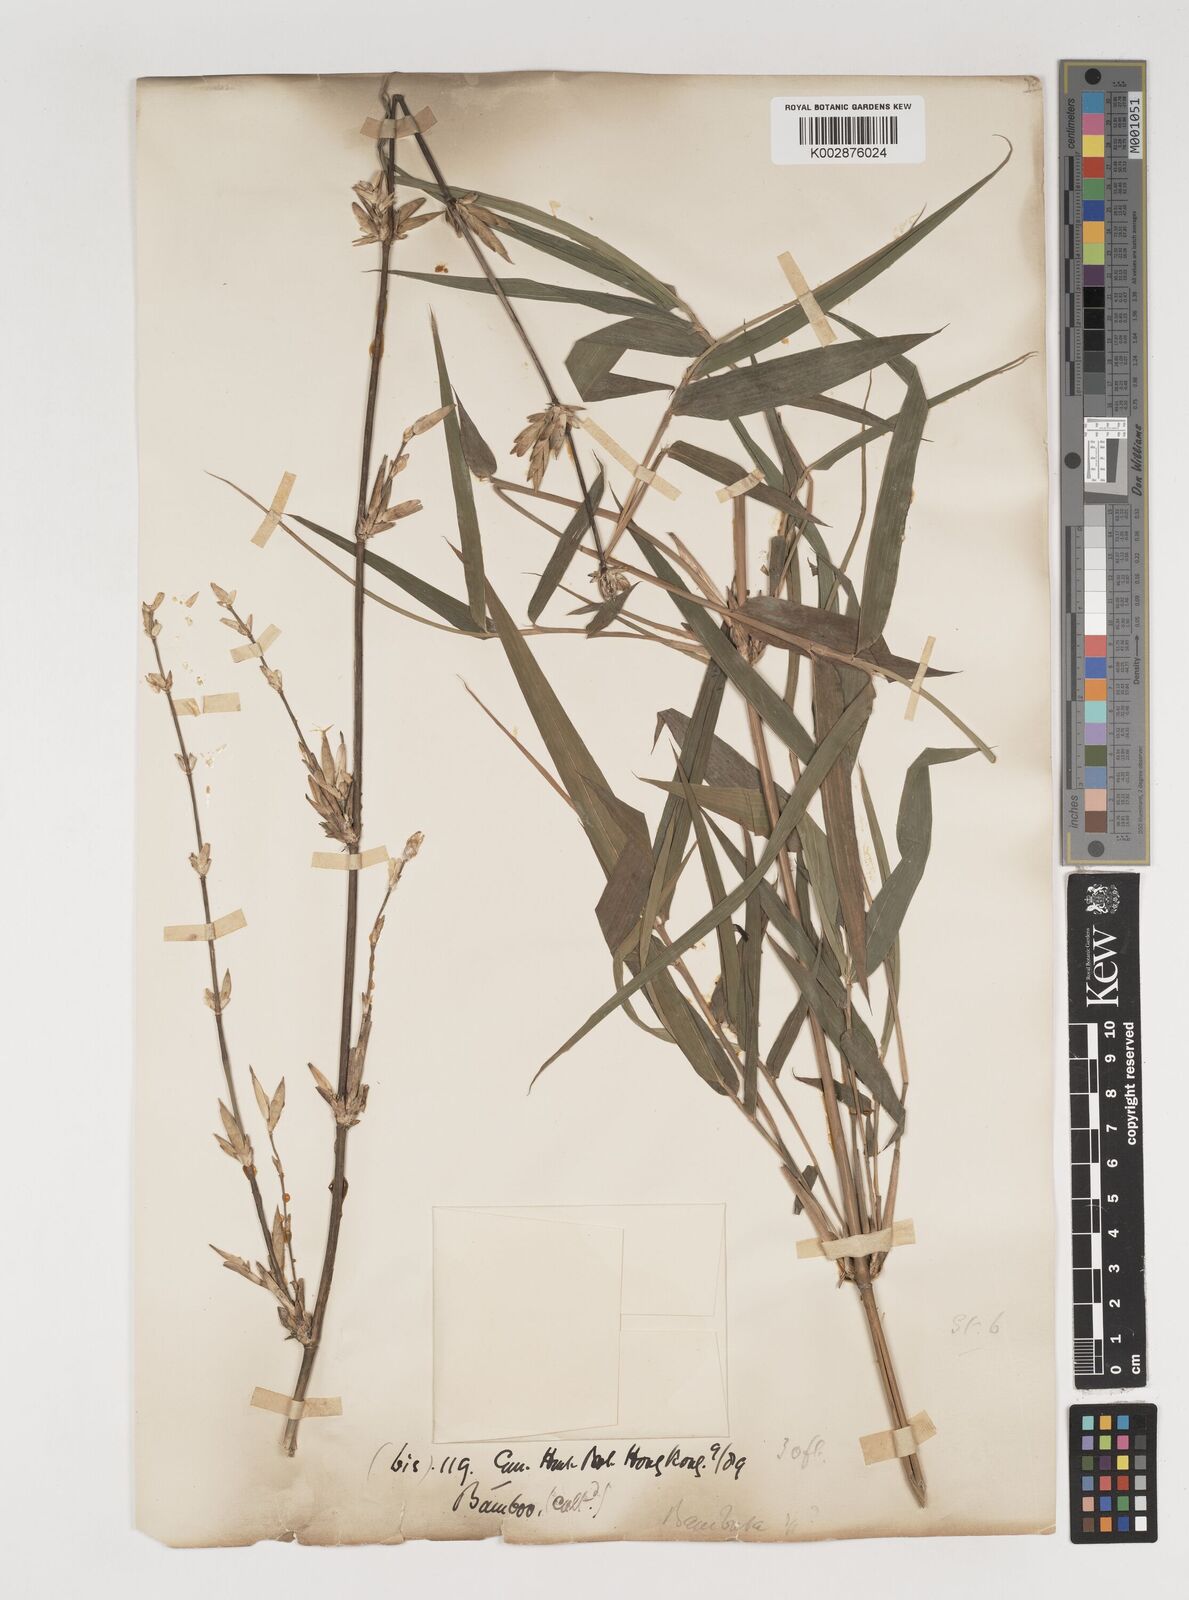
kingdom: Plantae
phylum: Tracheophyta
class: Liliopsida
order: Poales
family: Poaceae
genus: Bambusa
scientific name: Bambusa tuldoides
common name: Verdant bamboo
